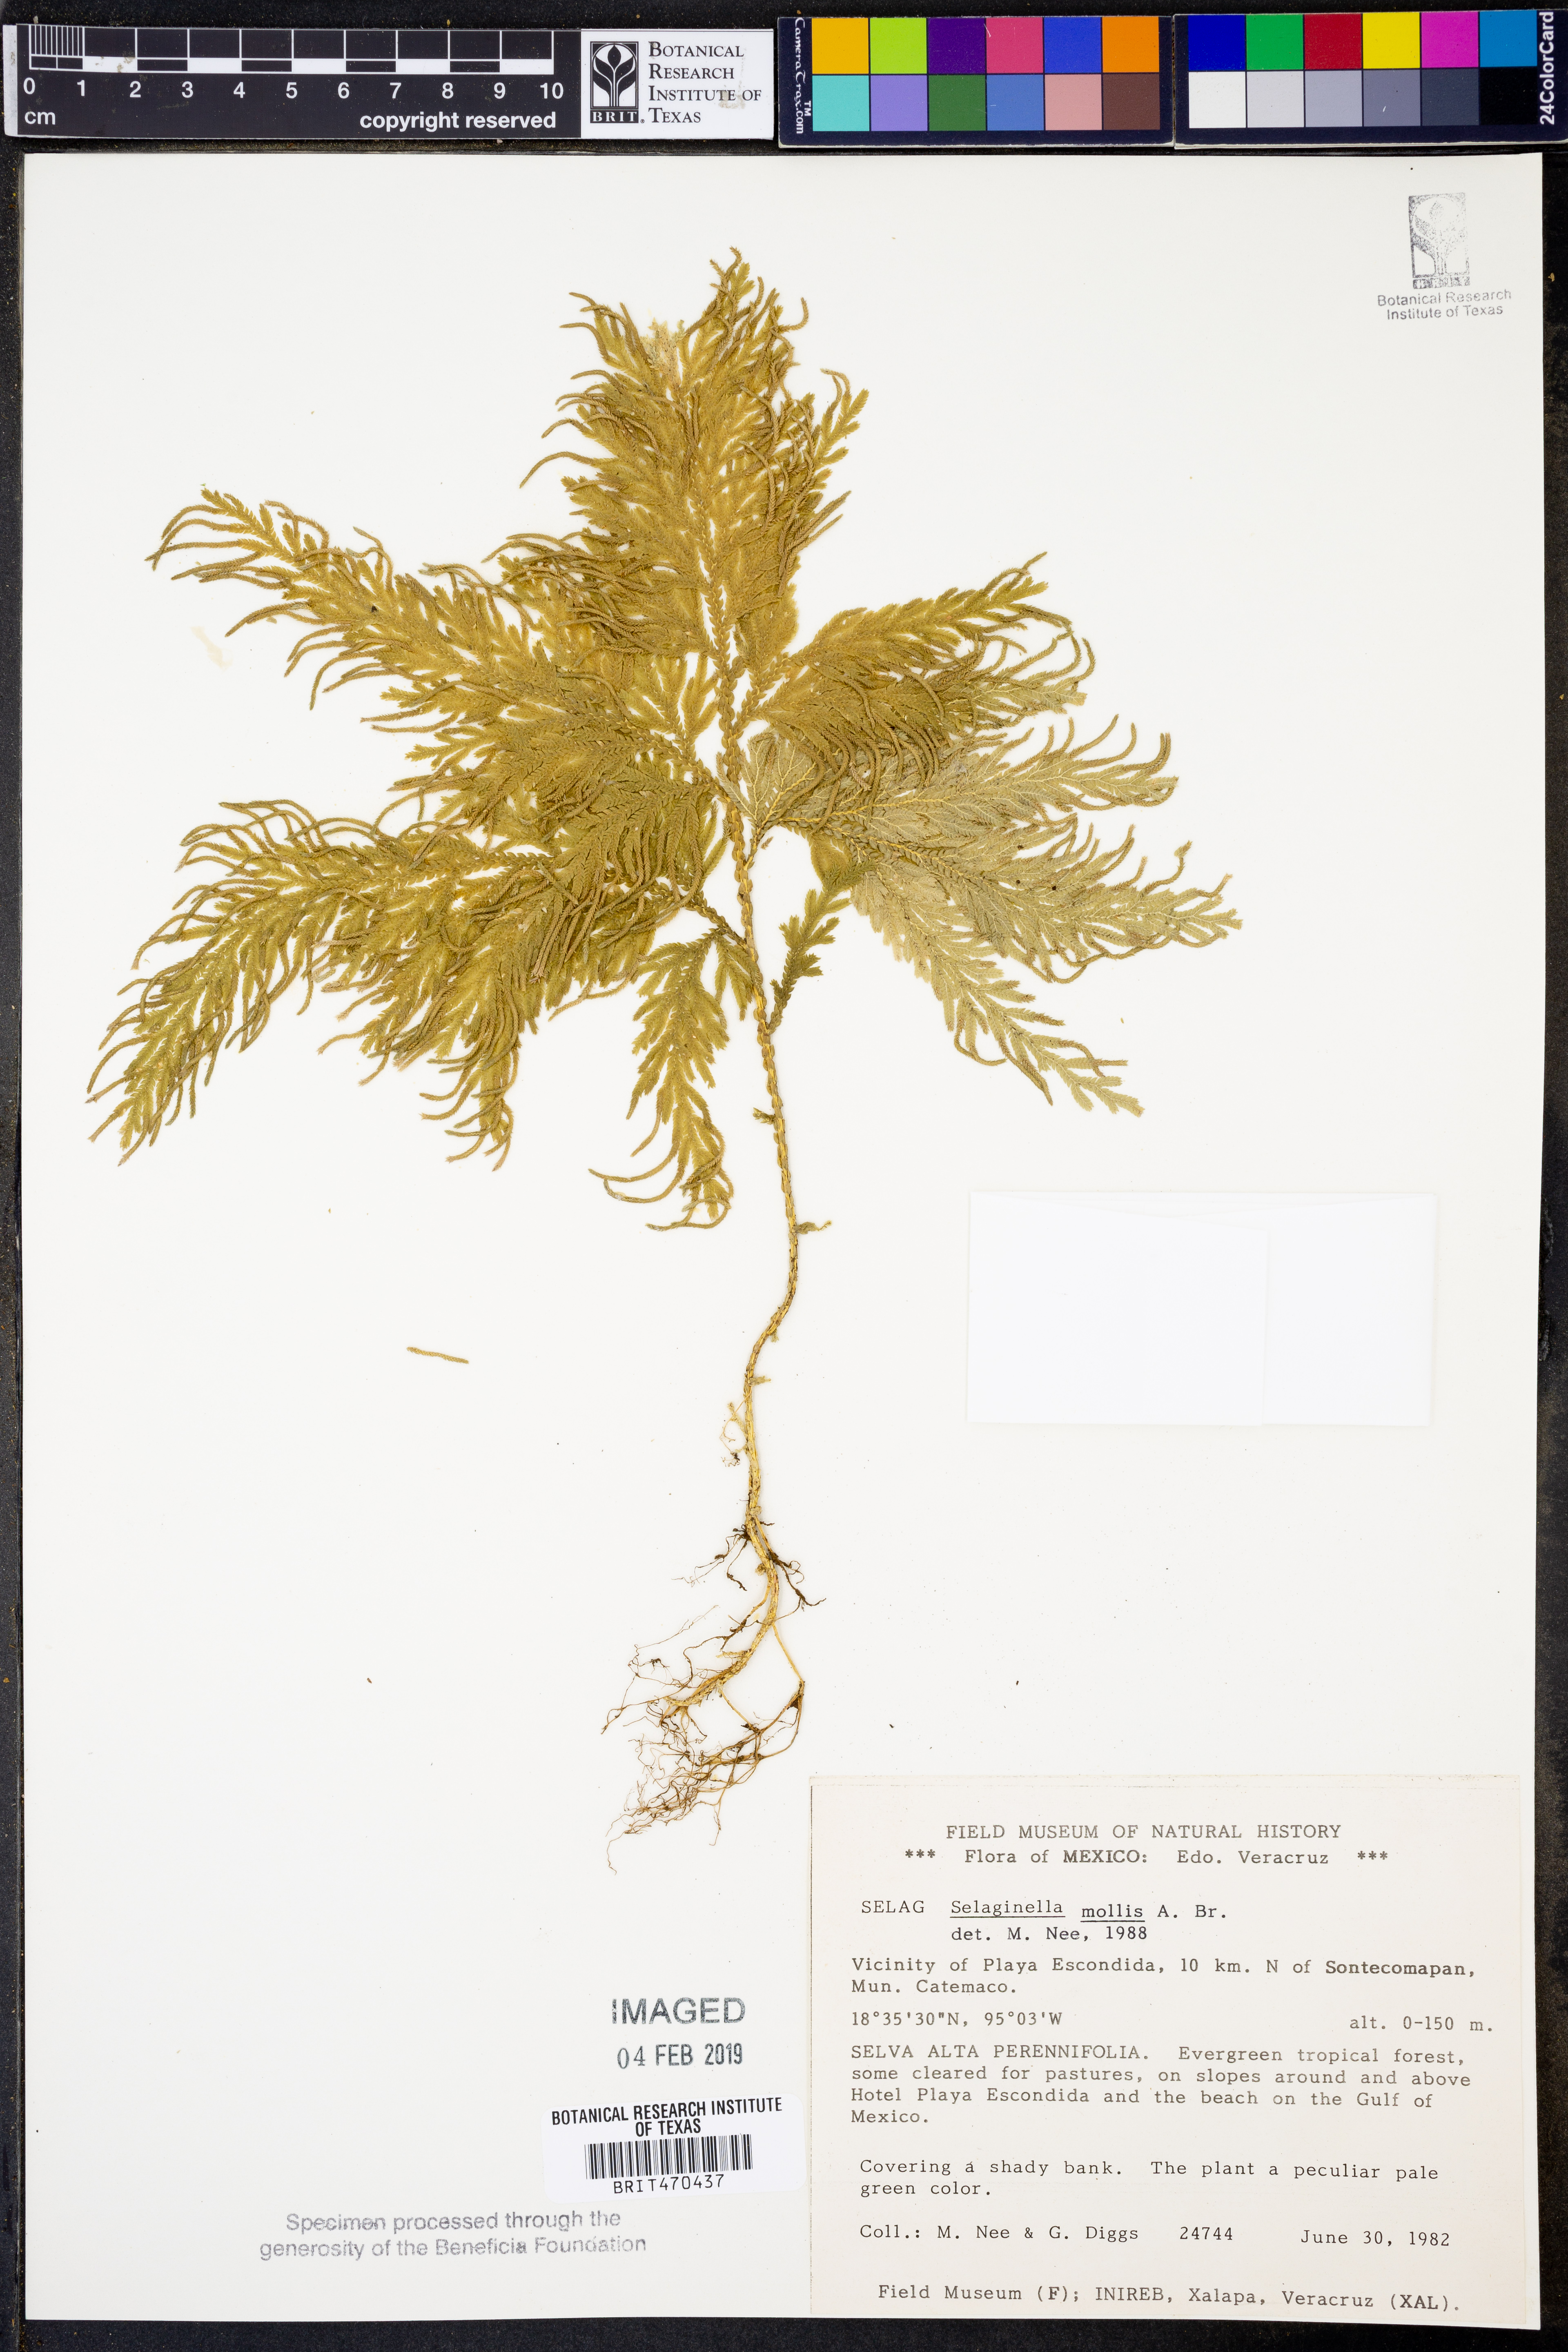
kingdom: Plantae
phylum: Tracheophyta
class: Lycopodiopsida
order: Selaginellales
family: Selaginellaceae
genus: Selaginella
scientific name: Selaginella mollis
